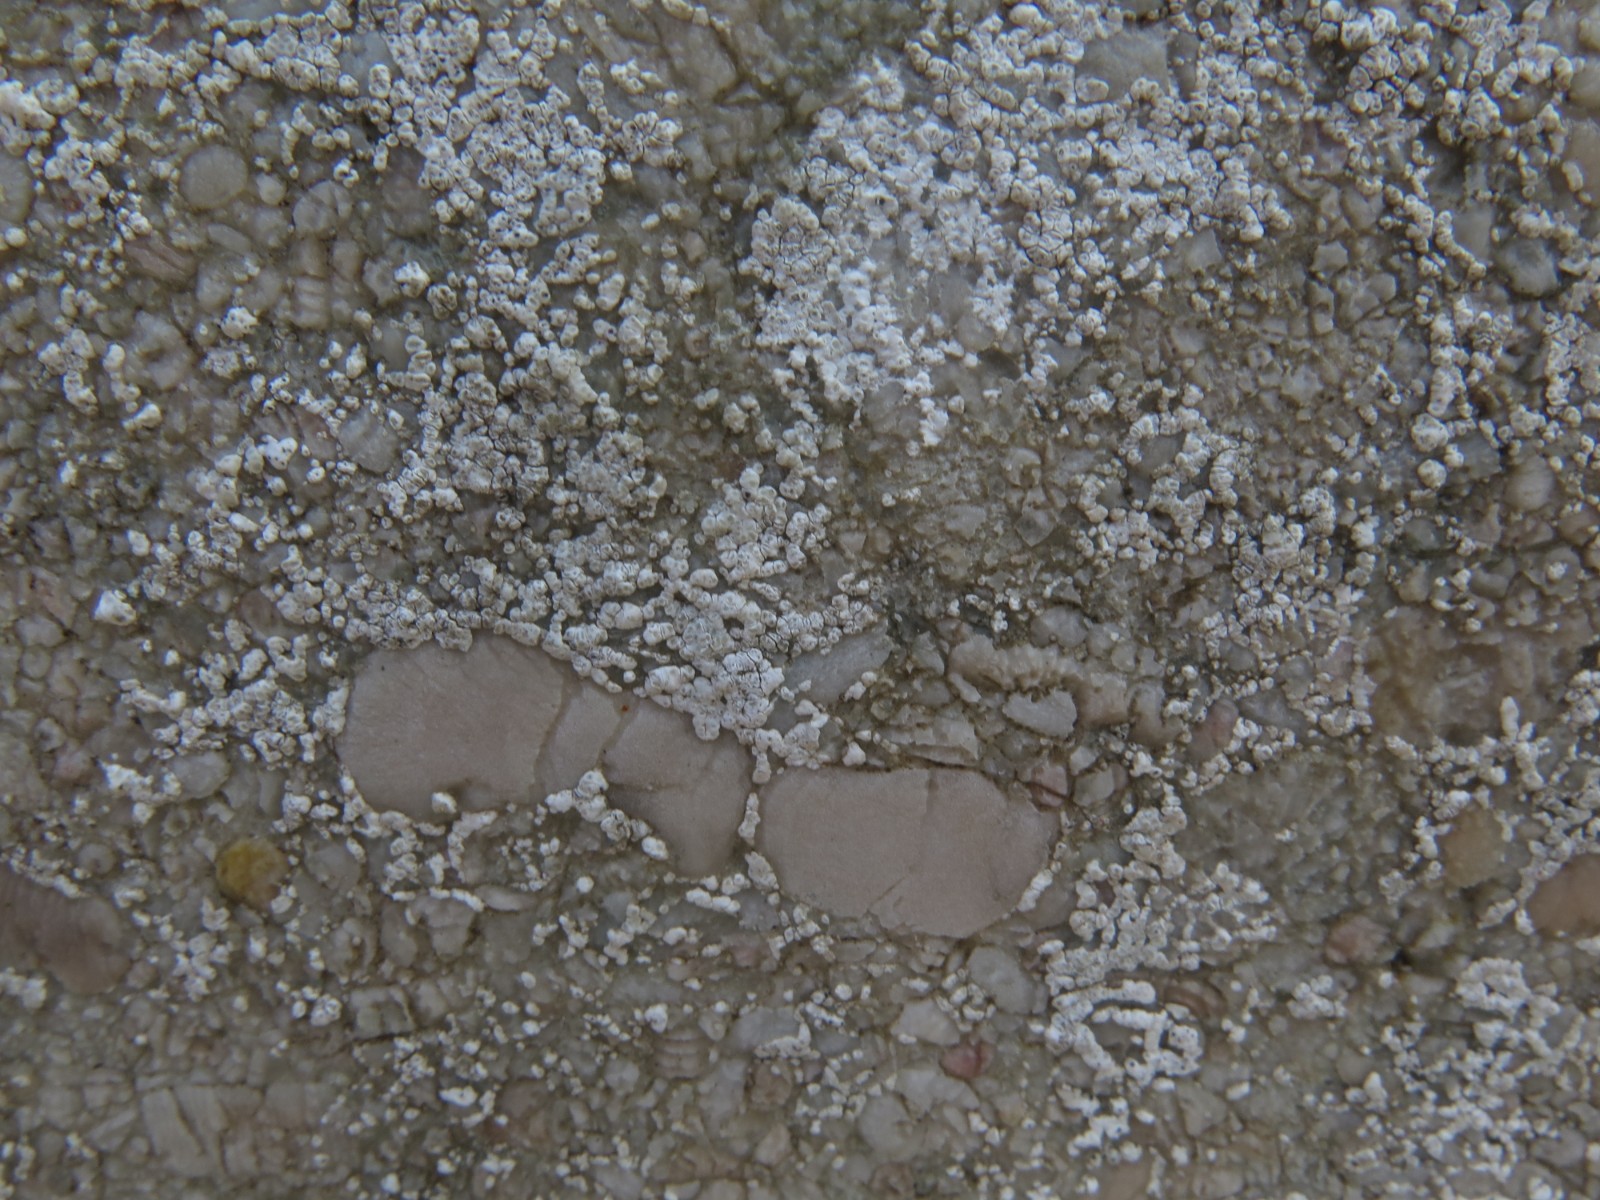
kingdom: Fungi
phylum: Ascomycota
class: Lecanoromycetes
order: Lecanorales
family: Lecanoraceae
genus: Polyozosia
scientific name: Polyozosia albescens
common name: cement-kantskivelav
